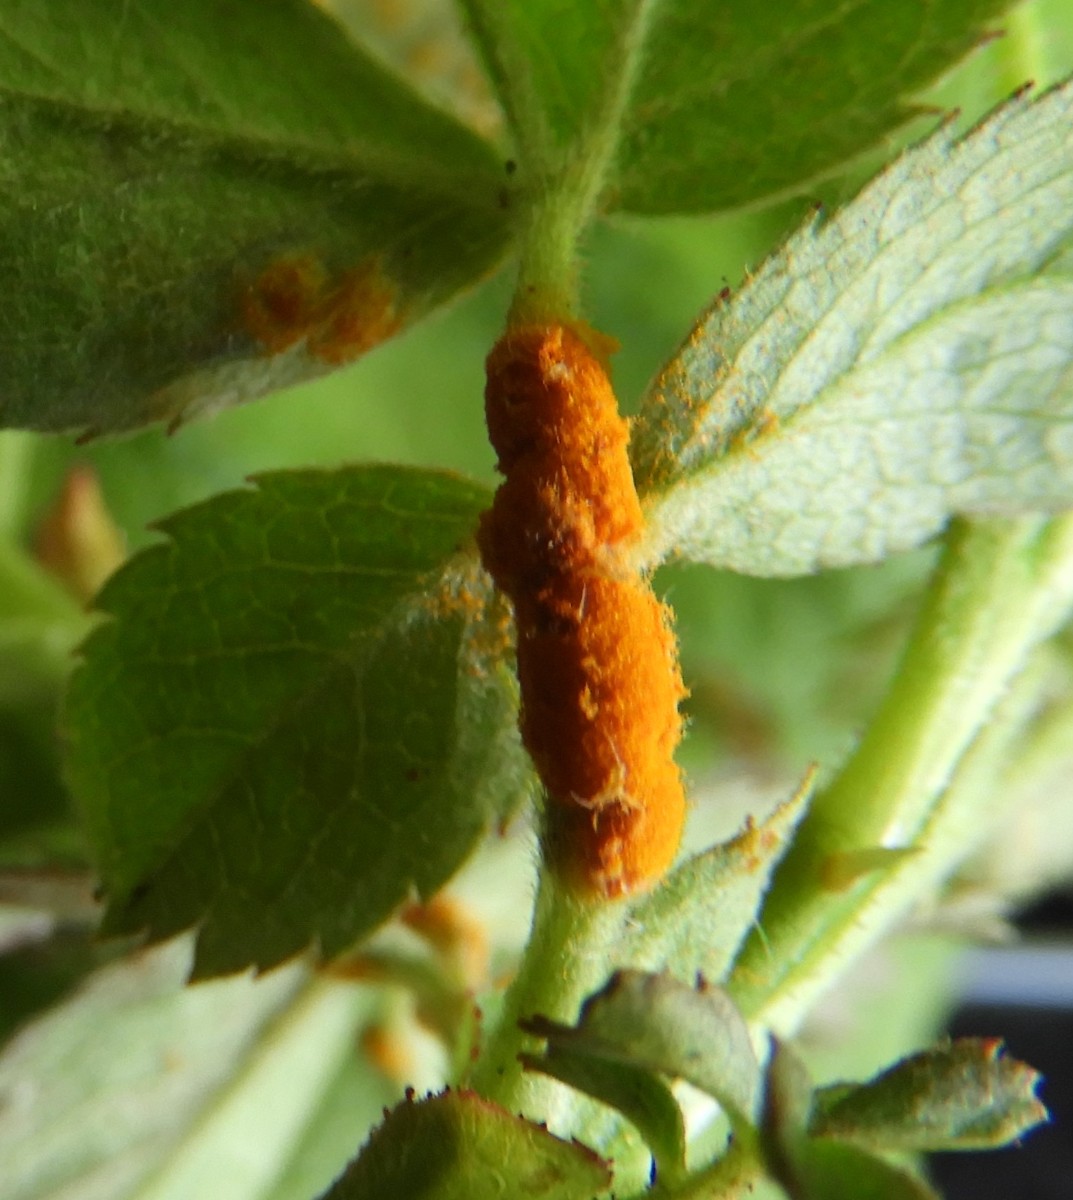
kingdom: Fungi
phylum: Basidiomycota
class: Pucciniomycetes
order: Pucciniales
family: Phragmidiaceae
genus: Phragmidium
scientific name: Phragmidium
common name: flercellerust
